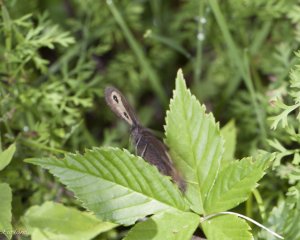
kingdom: Animalia
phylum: Arthropoda
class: Insecta
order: Lepidoptera
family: Nymphalidae
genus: Cercyonis
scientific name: Cercyonis pegala
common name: Common Wood-Nymph
